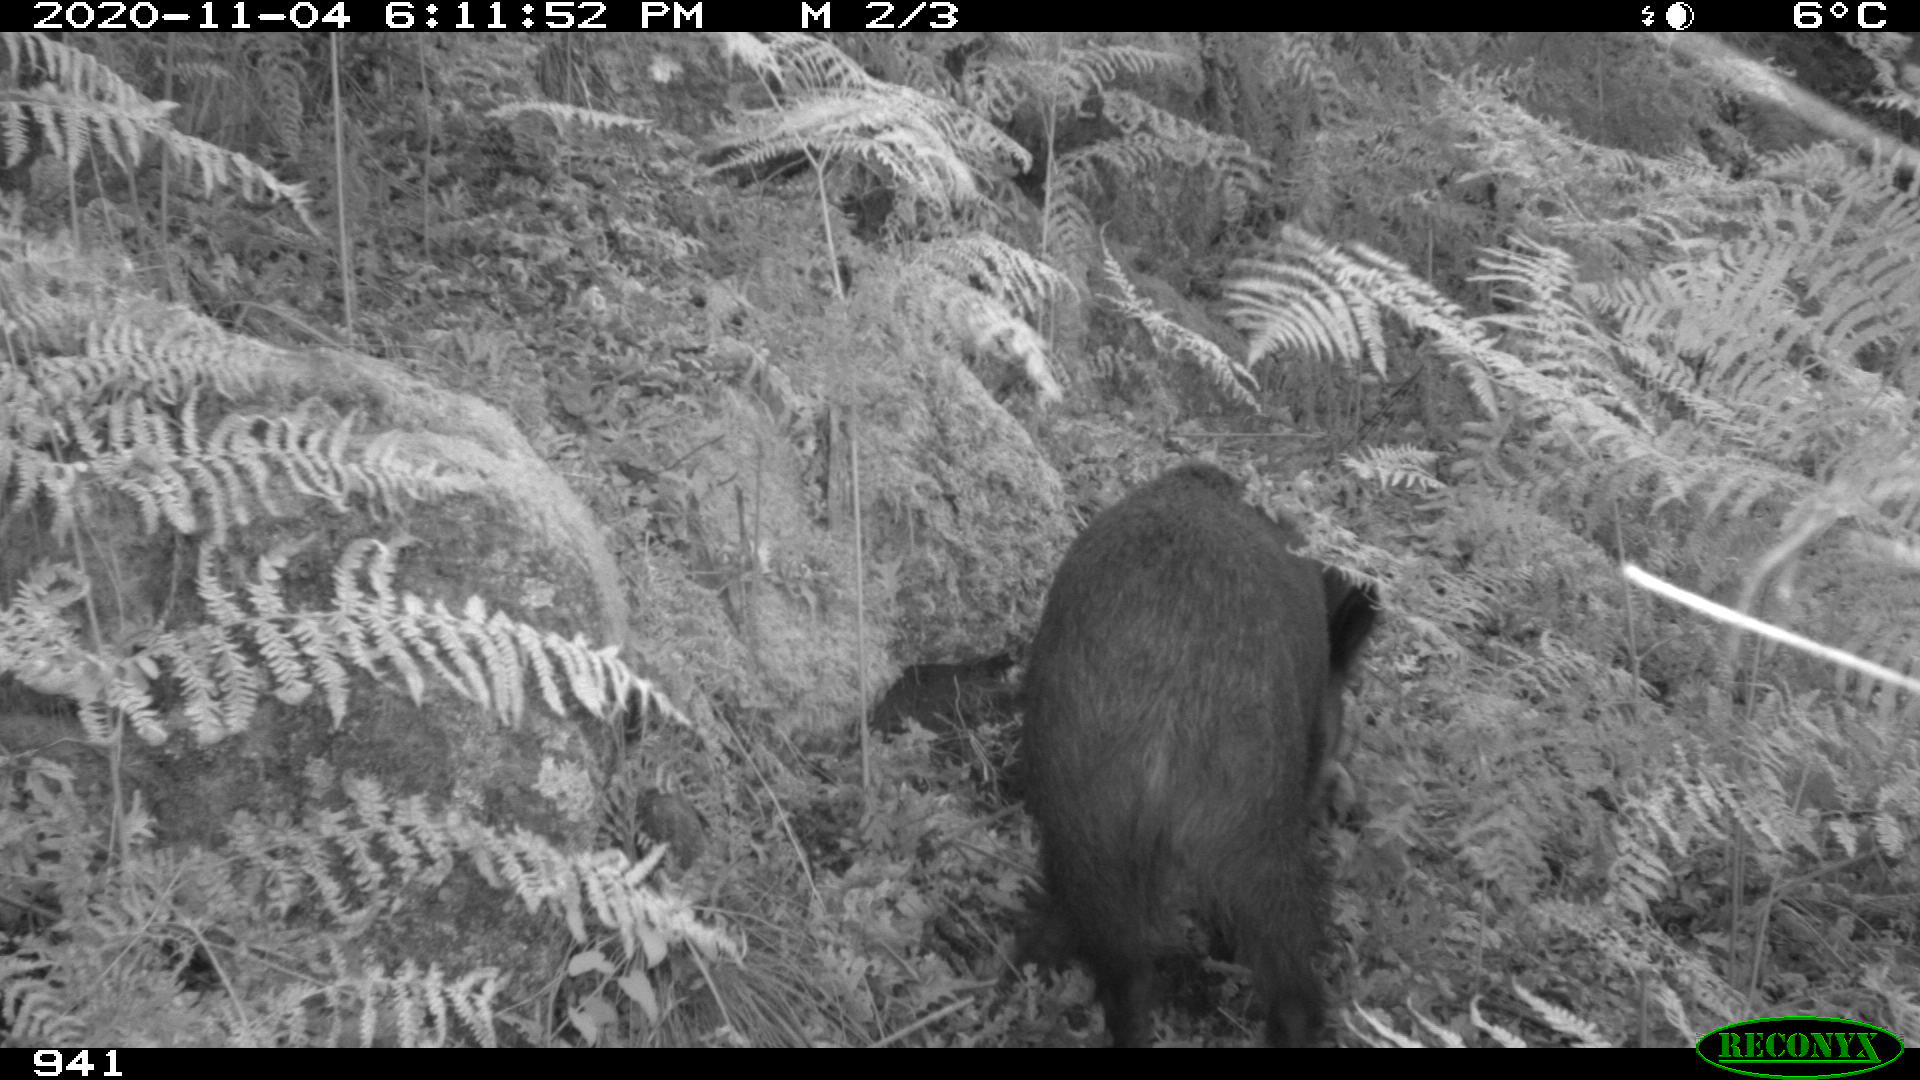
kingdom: Animalia
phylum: Chordata
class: Mammalia
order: Artiodactyla
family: Suidae
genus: Sus
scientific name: Sus scrofa
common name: Wild boar
